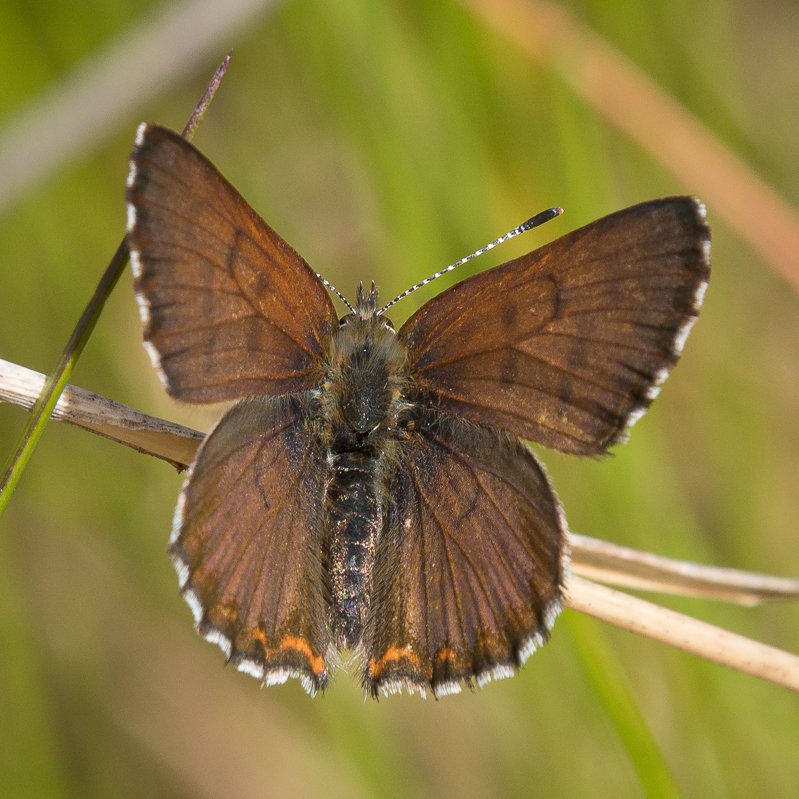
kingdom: Animalia
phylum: Arthropoda
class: Insecta
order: Lepidoptera
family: Lycaenidae
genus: Lycaena
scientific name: Lycaena mariposa
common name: Mariposa Copper
